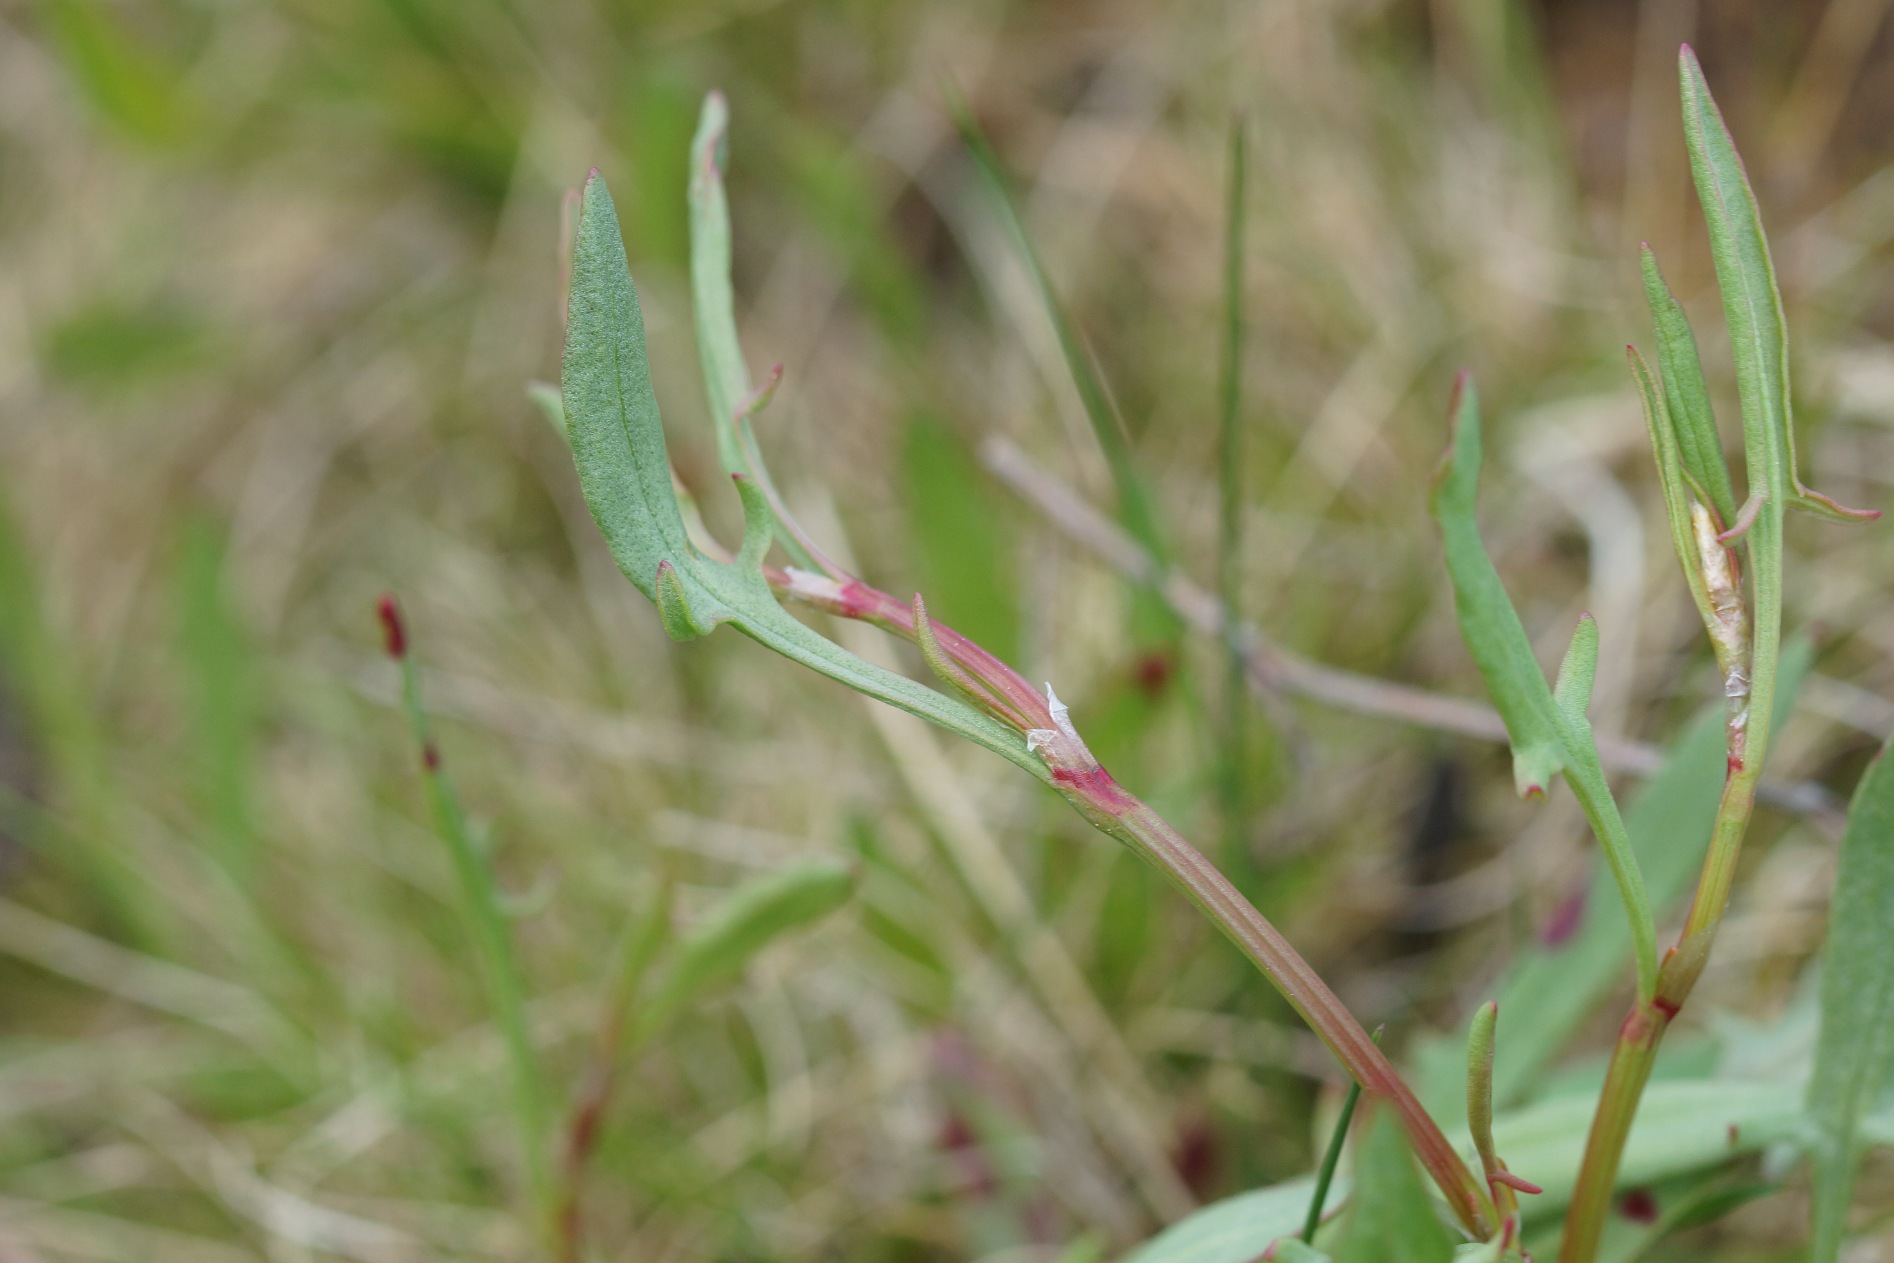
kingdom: Plantae
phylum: Tracheophyta
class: Magnoliopsida
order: Caryophyllales
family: Polygonaceae
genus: Rumex
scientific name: Rumex acetosella
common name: Rødknæ
